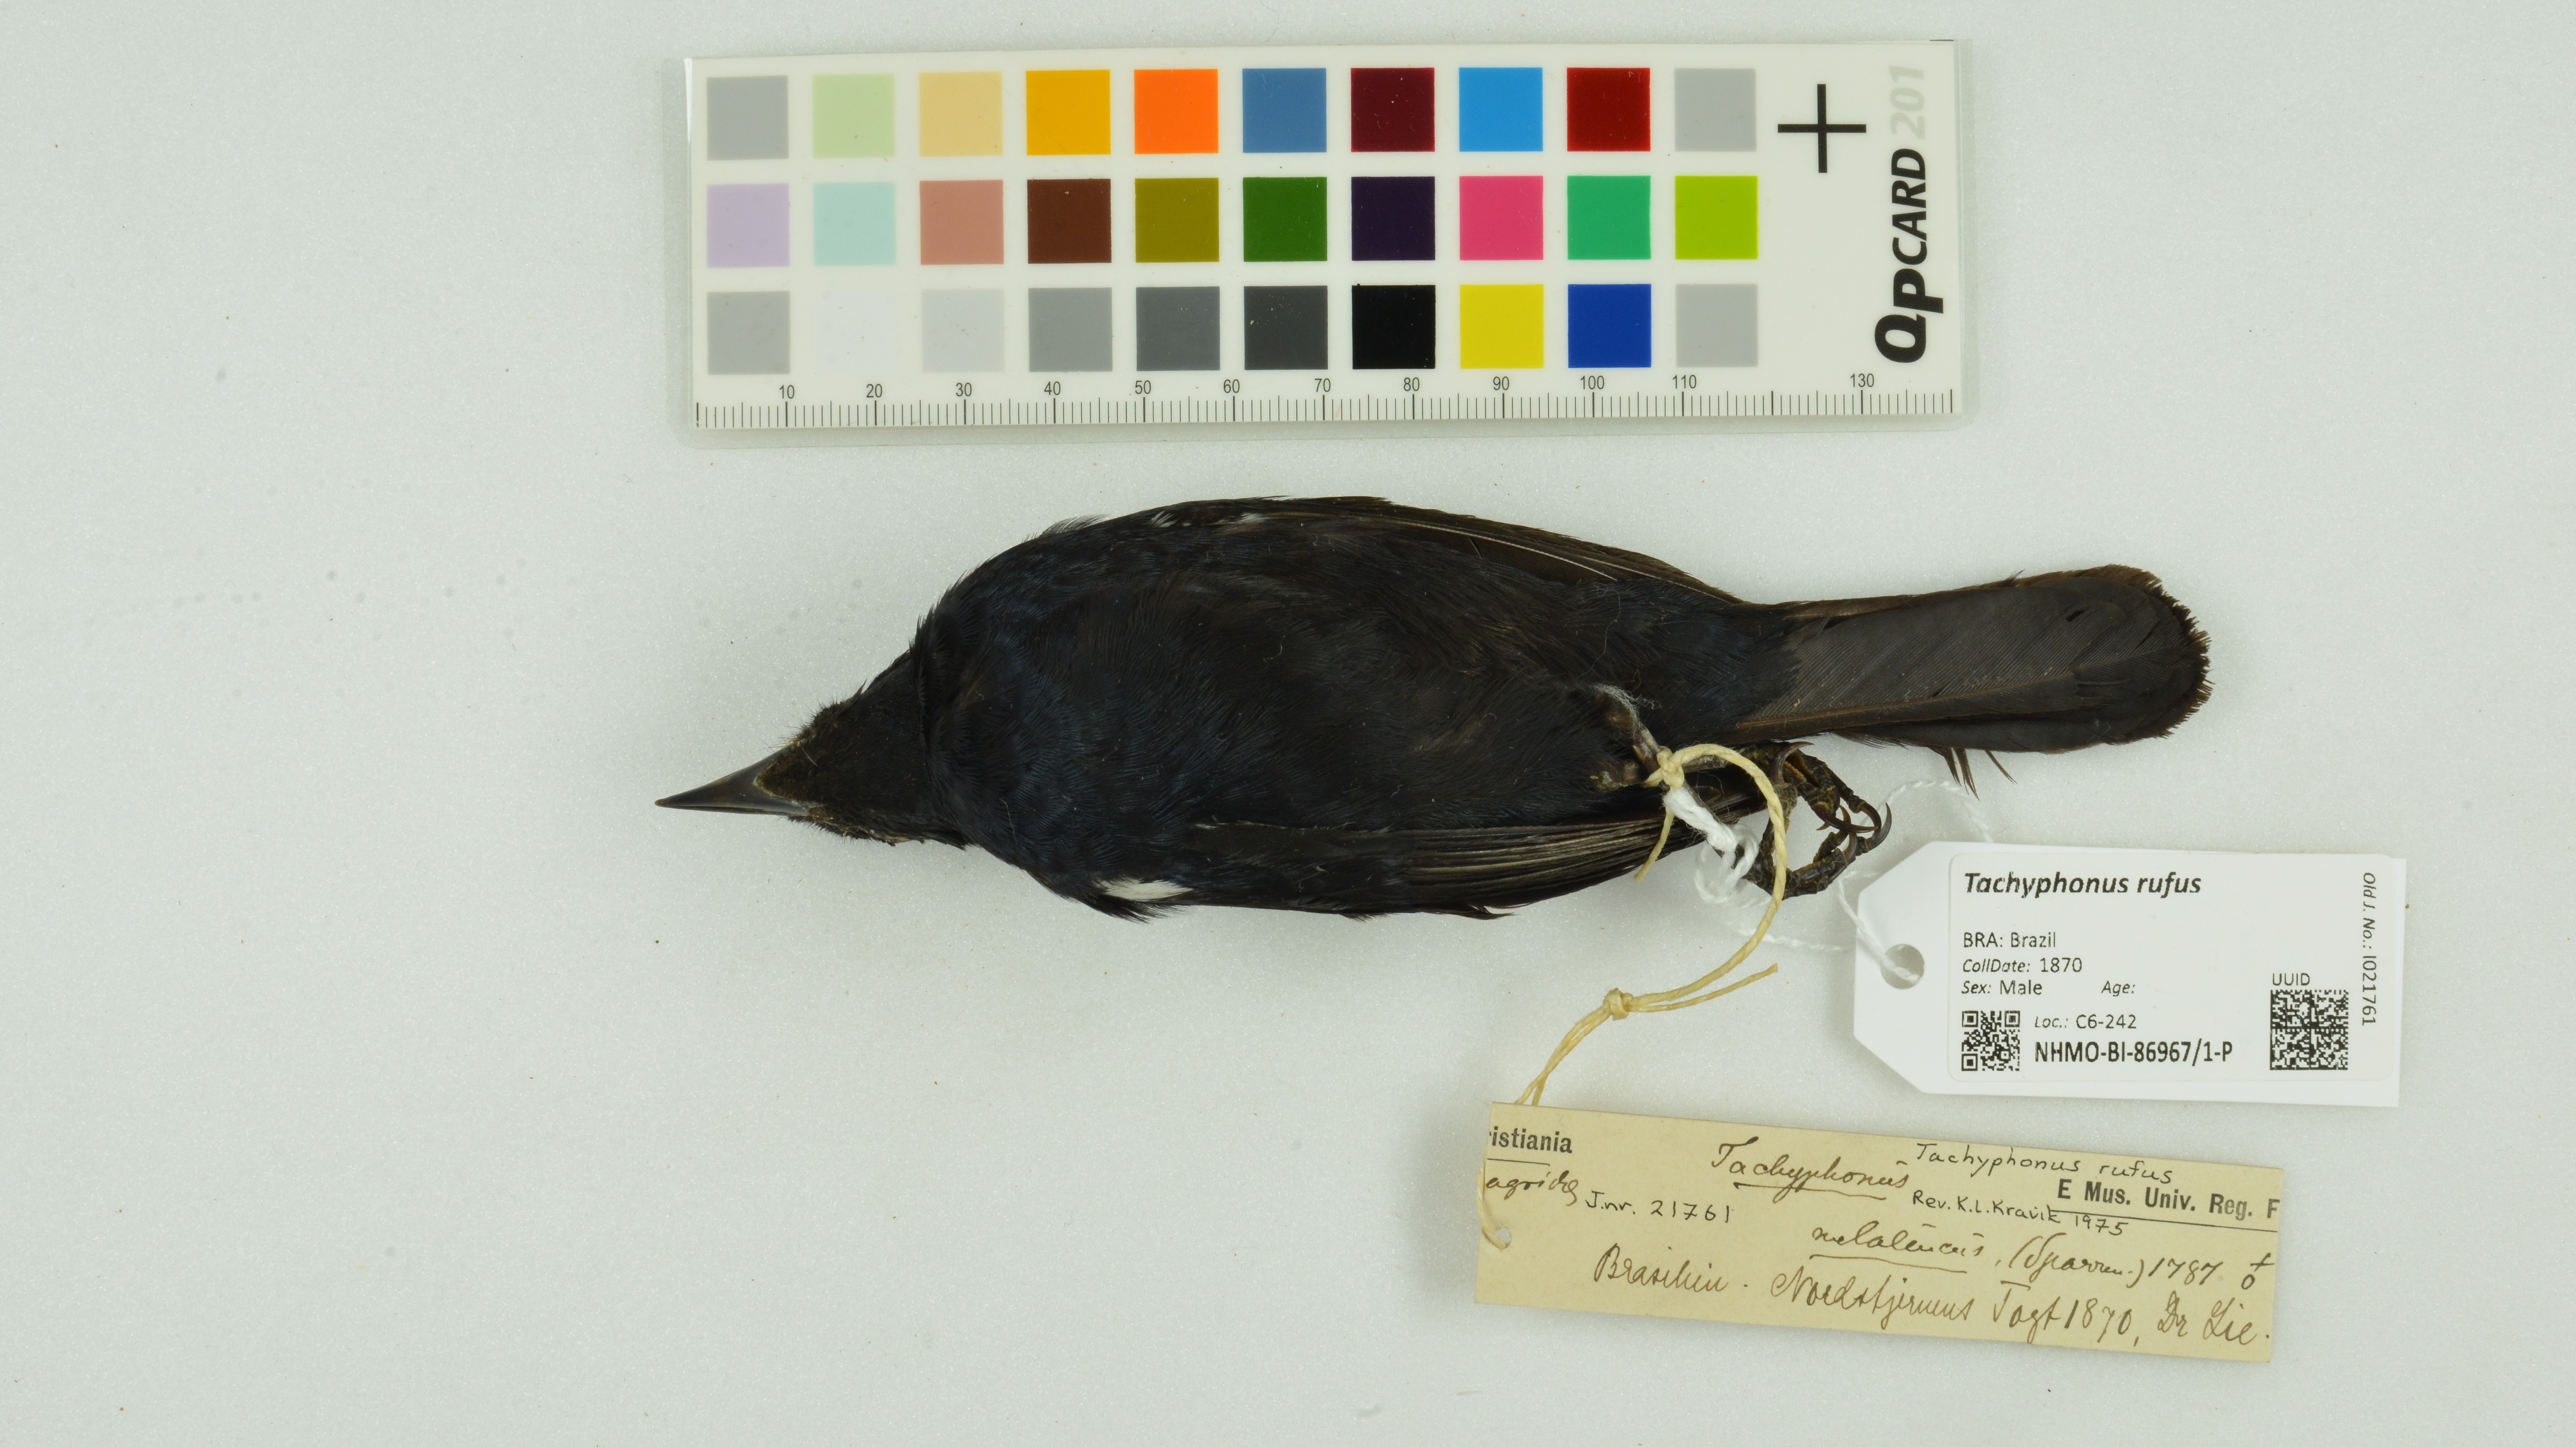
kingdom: Animalia
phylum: Chordata
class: Aves
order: Passeriformes
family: Thraupidae
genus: Tachyphonus
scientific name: Tachyphonus rufus
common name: White-lined tanager
